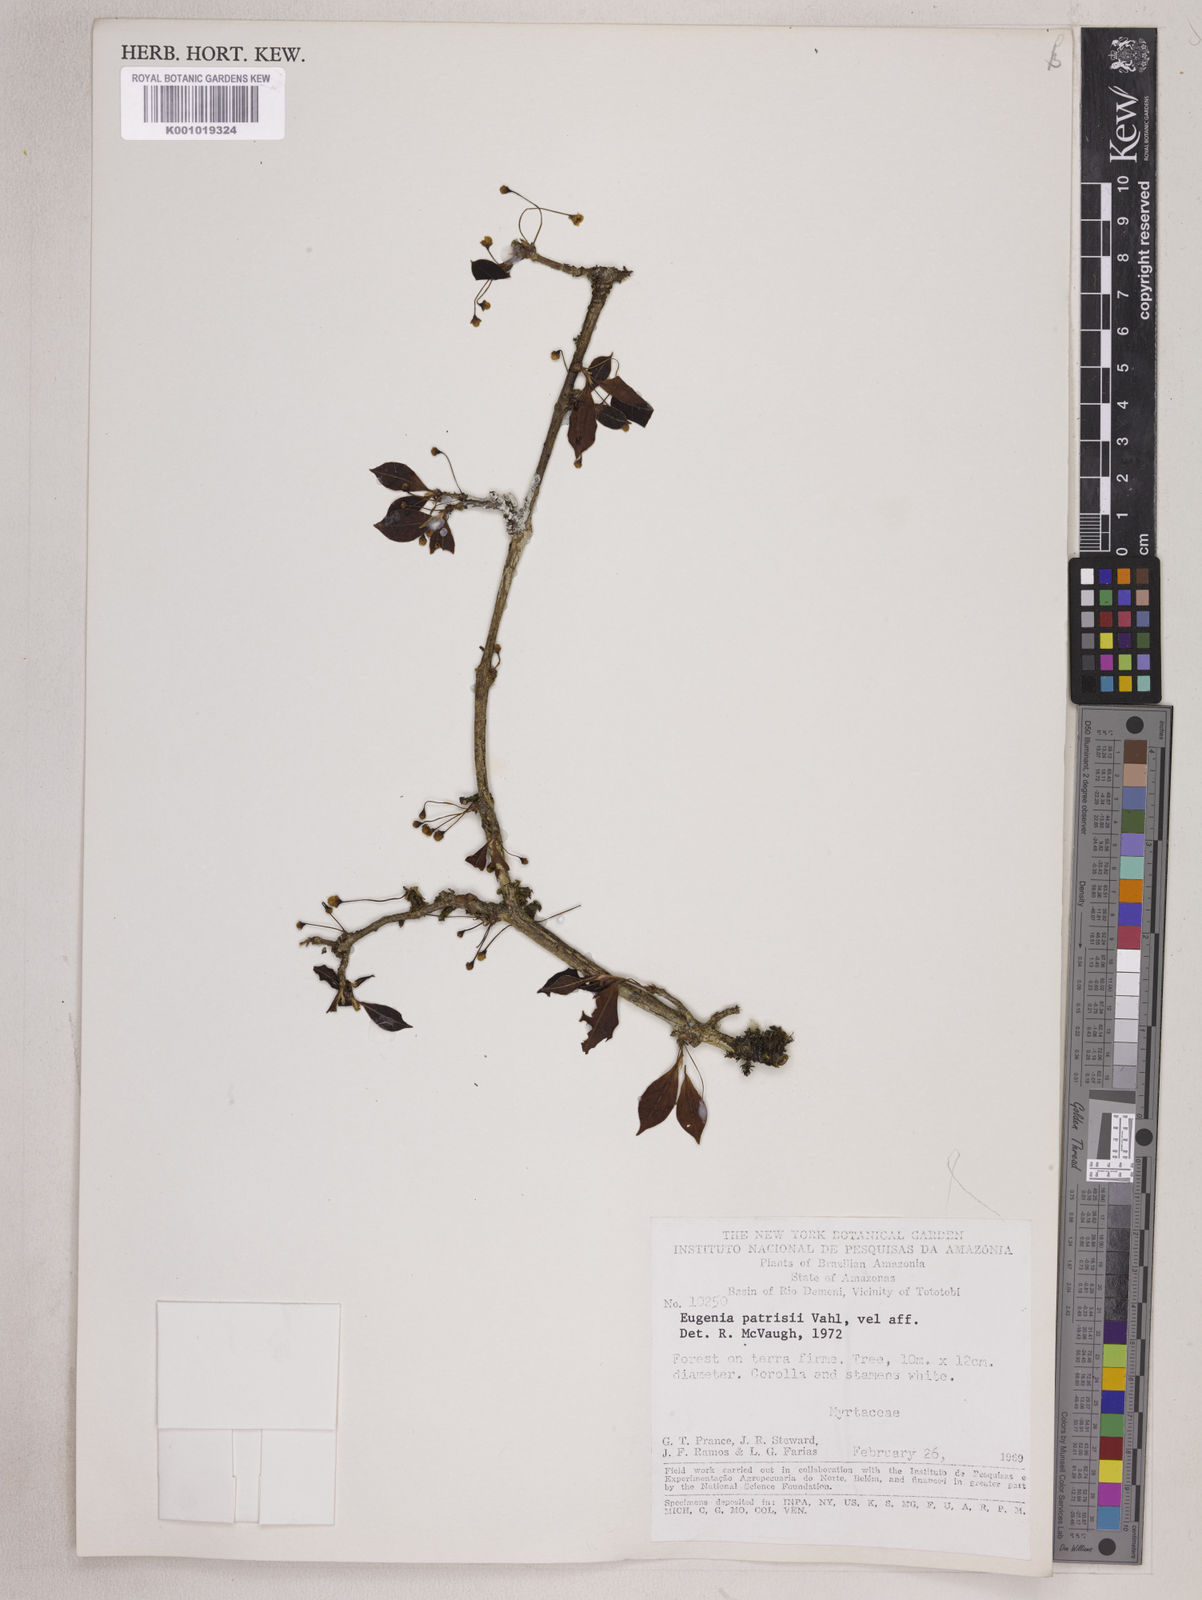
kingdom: Plantae
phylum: Tracheophyta
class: Magnoliopsida
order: Myrtales
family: Myrtaceae
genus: Eugenia
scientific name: Eugenia patrisii
